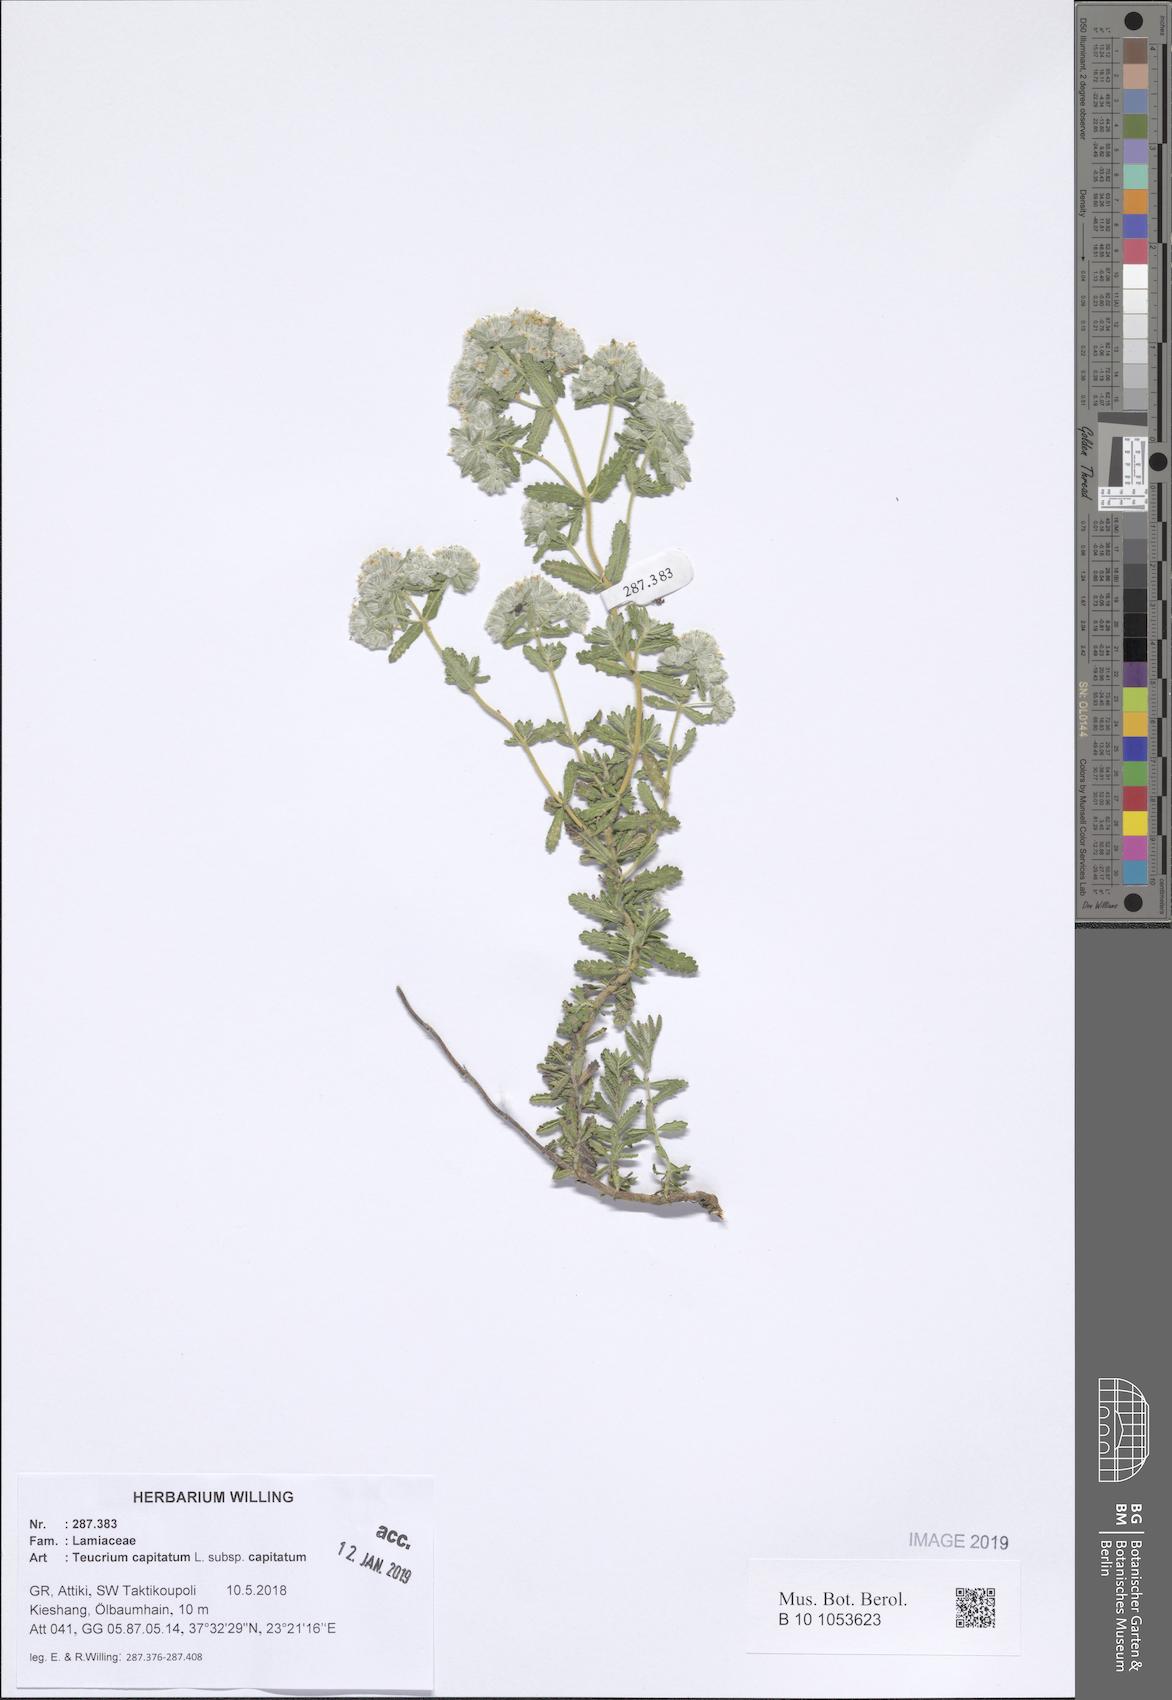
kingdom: Plantae
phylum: Tracheophyta
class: Magnoliopsida
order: Lamiales
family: Lamiaceae
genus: Teucrium
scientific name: Teucrium capitatum
